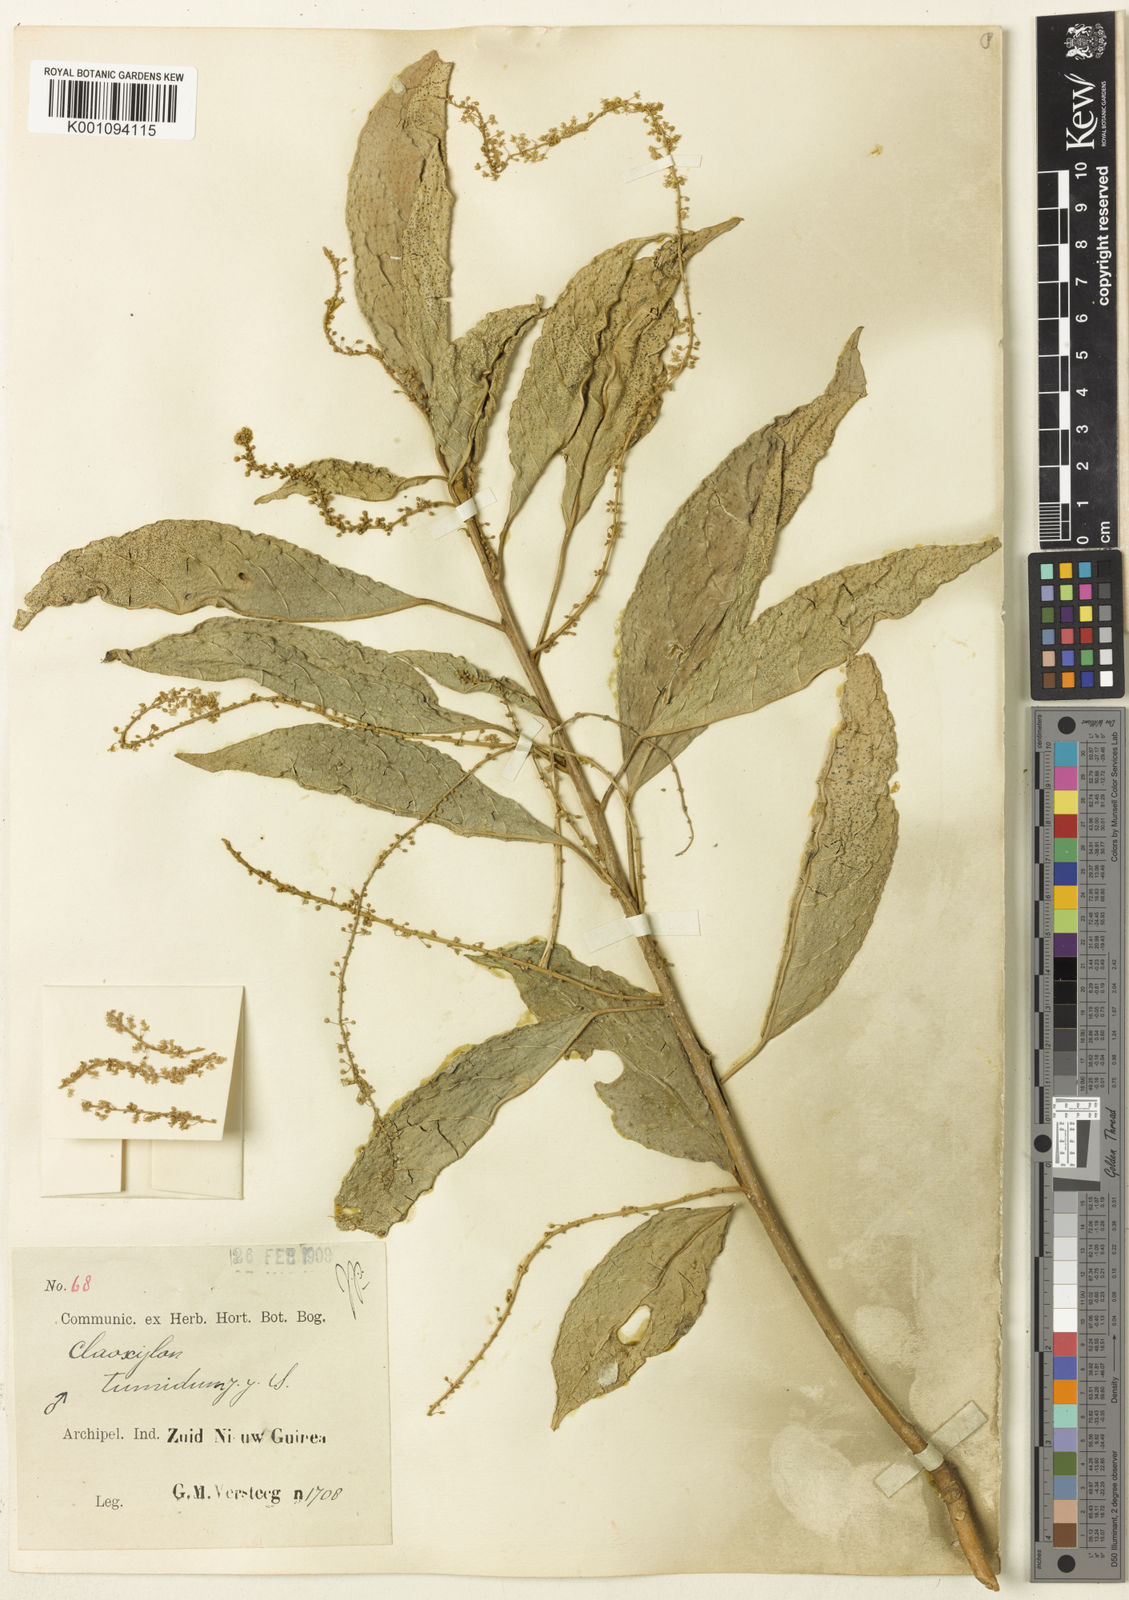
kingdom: Plantae
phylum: Tracheophyta
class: Magnoliopsida
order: Malpighiales
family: Euphorbiaceae
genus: Claoxylon
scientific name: Claoxylon cuneatum
